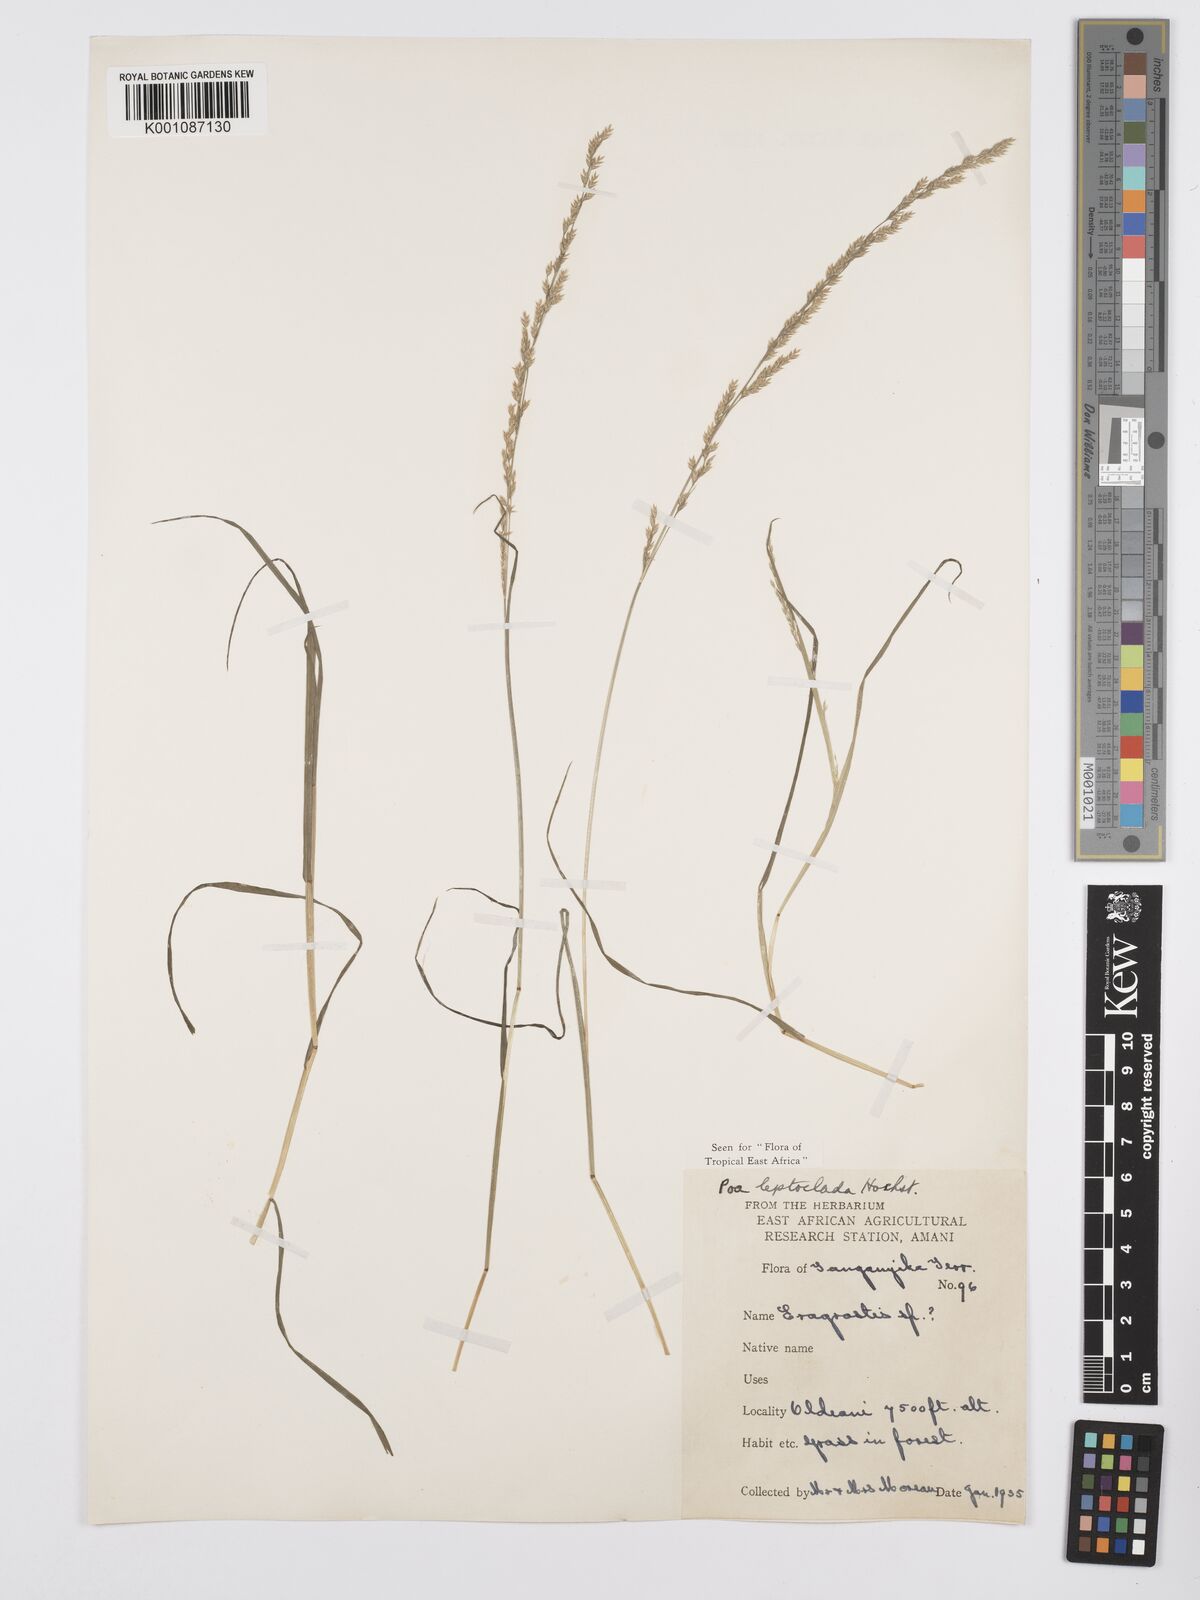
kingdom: Plantae
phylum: Tracheophyta
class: Liliopsida
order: Poales
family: Poaceae
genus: Poa
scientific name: Poa leptoclada
